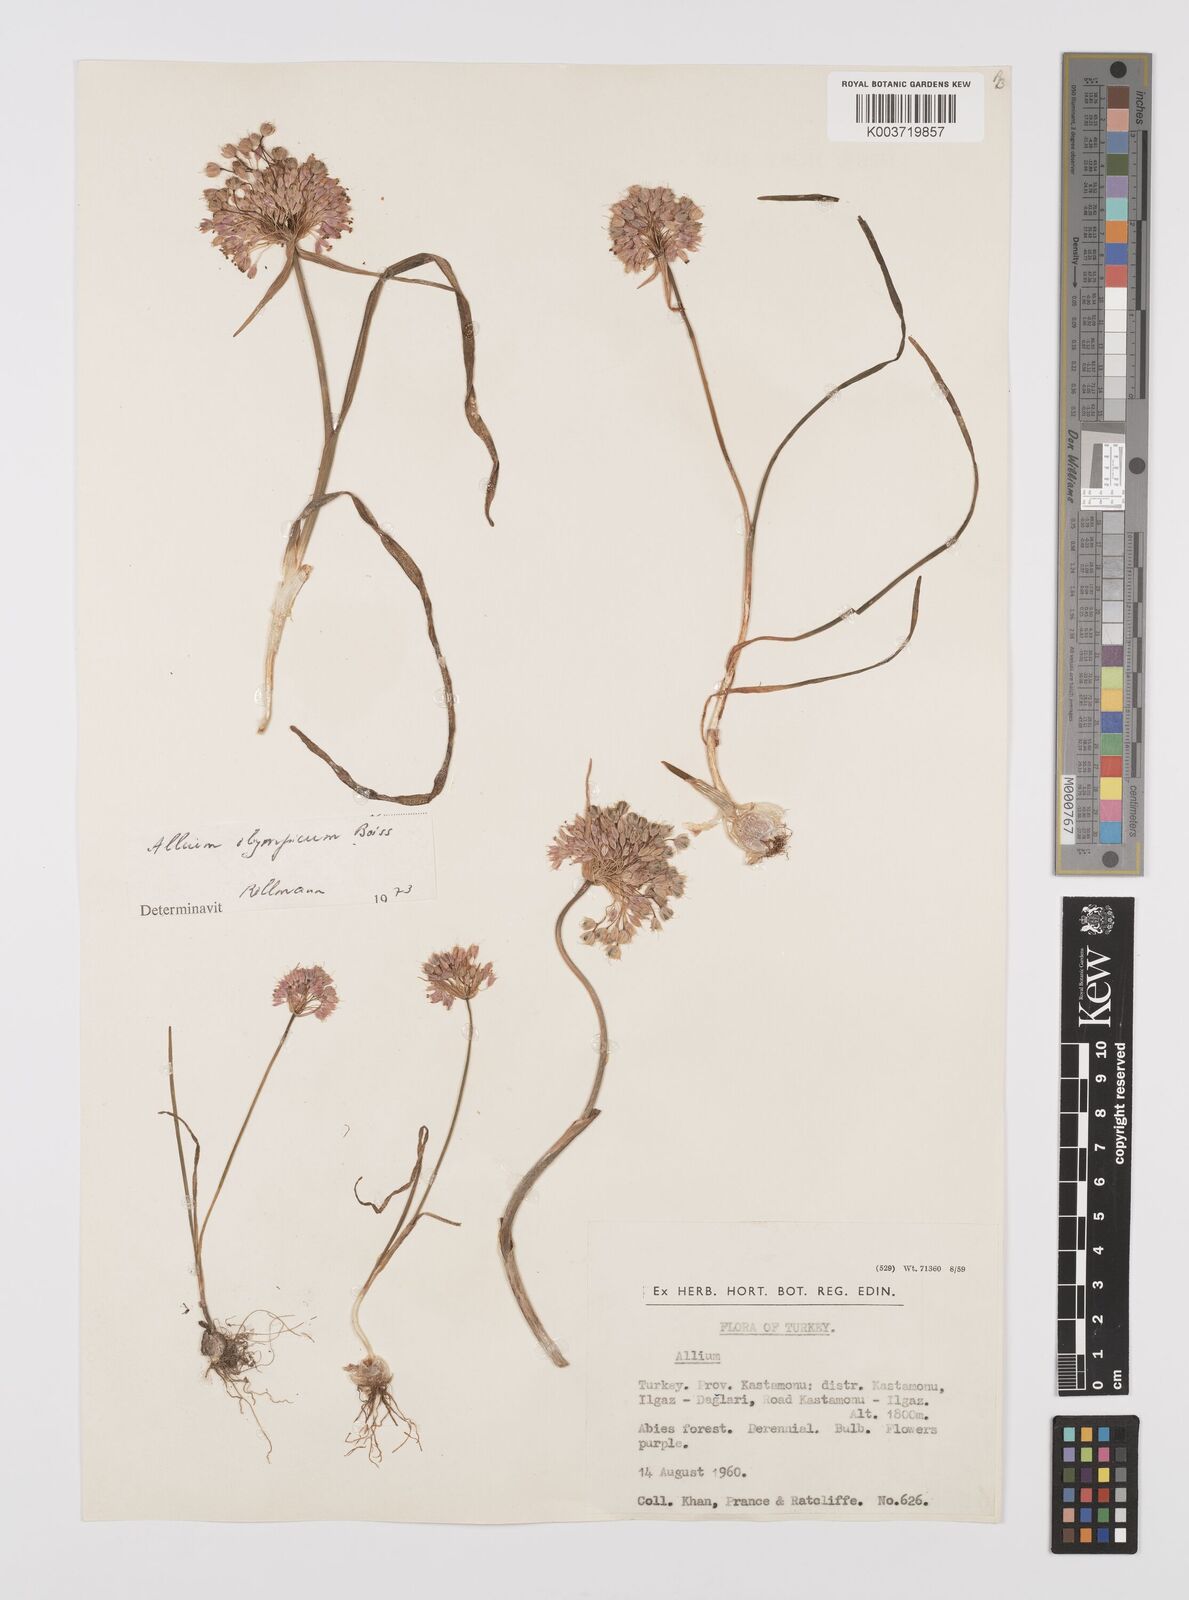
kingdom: Plantae
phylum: Tracheophyta
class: Liliopsida
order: Asparagales
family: Amaryllidaceae
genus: Allium
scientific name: Allium olympicum
